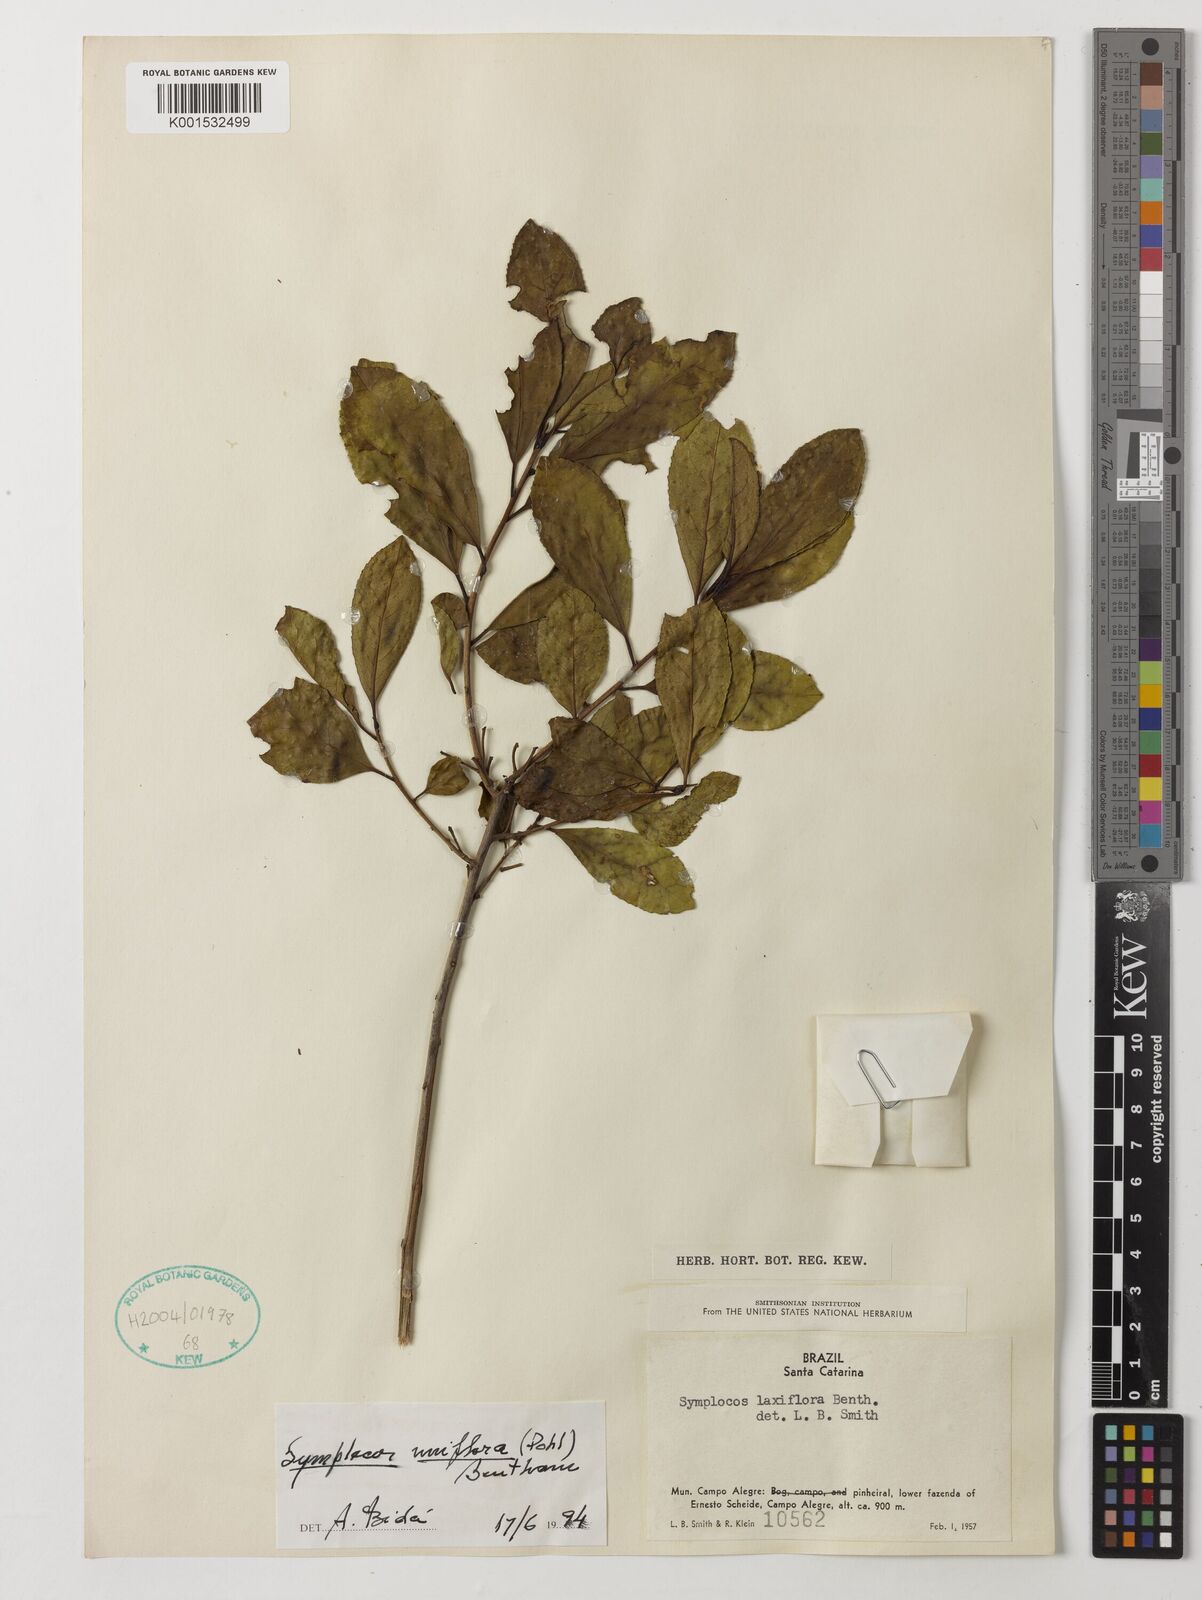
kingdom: Plantae
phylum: Tracheophyta
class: Magnoliopsida
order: Ericales
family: Symplocaceae
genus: Symplocos
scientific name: Symplocos uniflora
